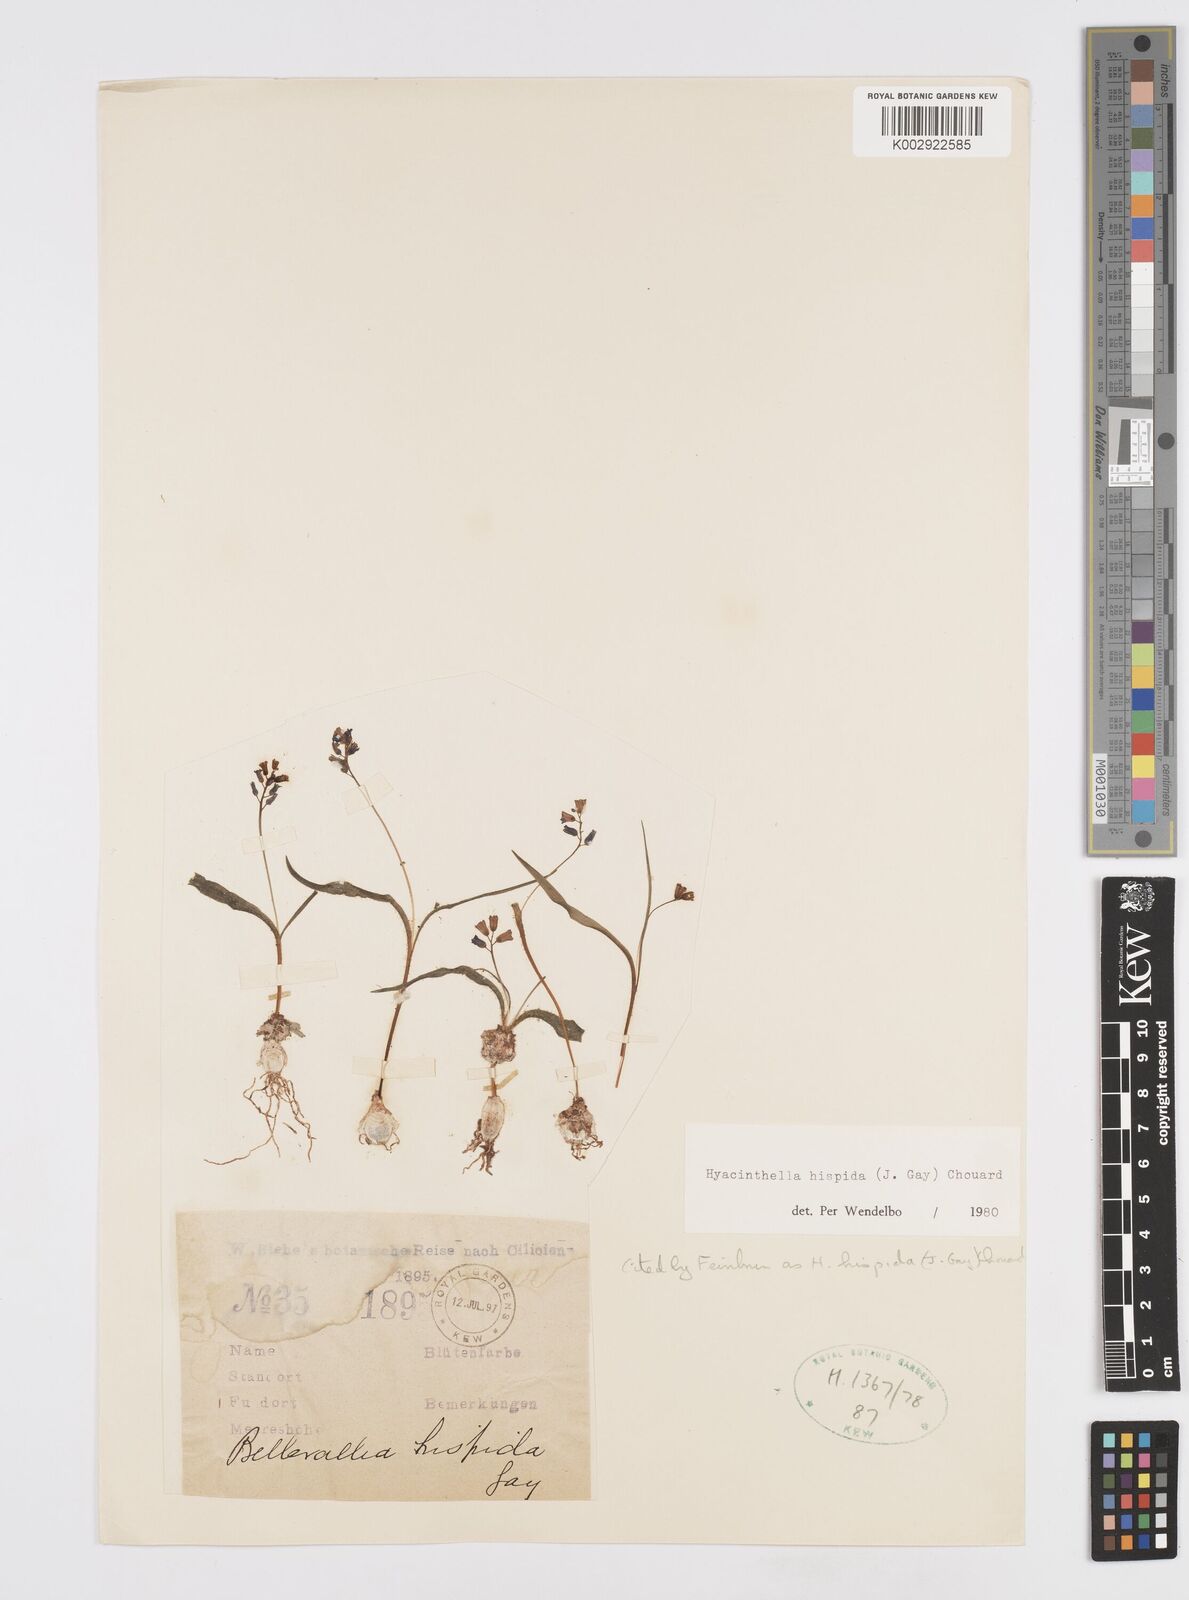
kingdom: Plantae
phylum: Tracheophyta
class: Liliopsida
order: Asparagales
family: Asparagaceae
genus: Hyacinthella
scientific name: Hyacinthella hispida
